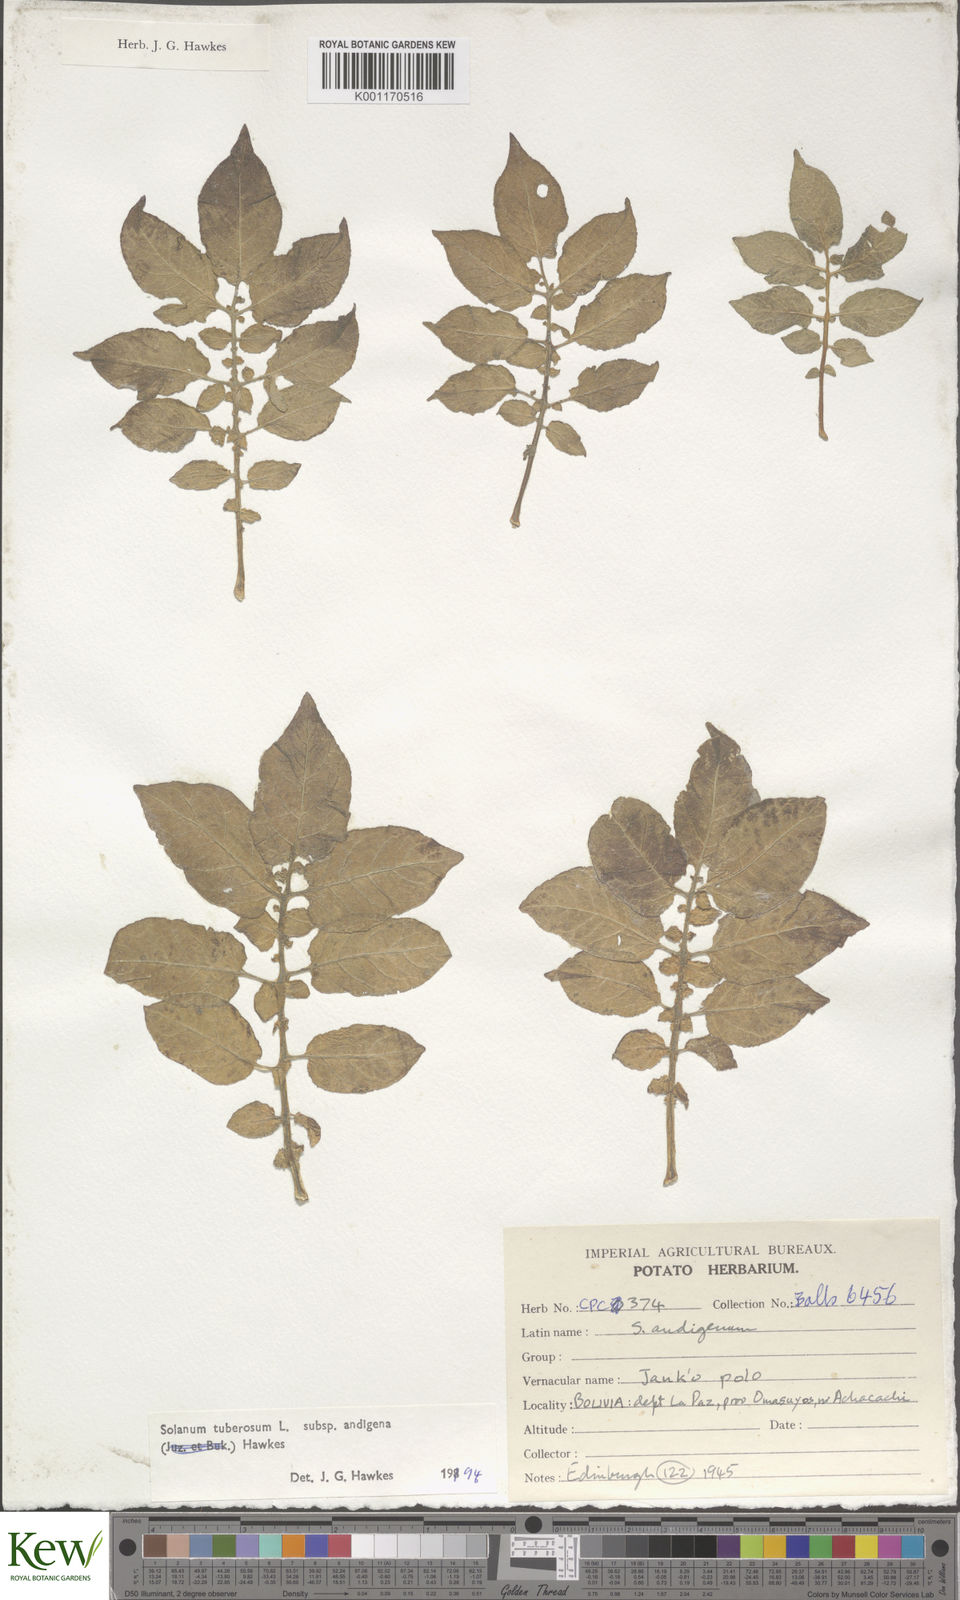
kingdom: Plantae
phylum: Tracheophyta
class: Magnoliopsida
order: Solanales
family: Solanaceae
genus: Solanum
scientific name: Solanum tuberosum
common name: Potato
